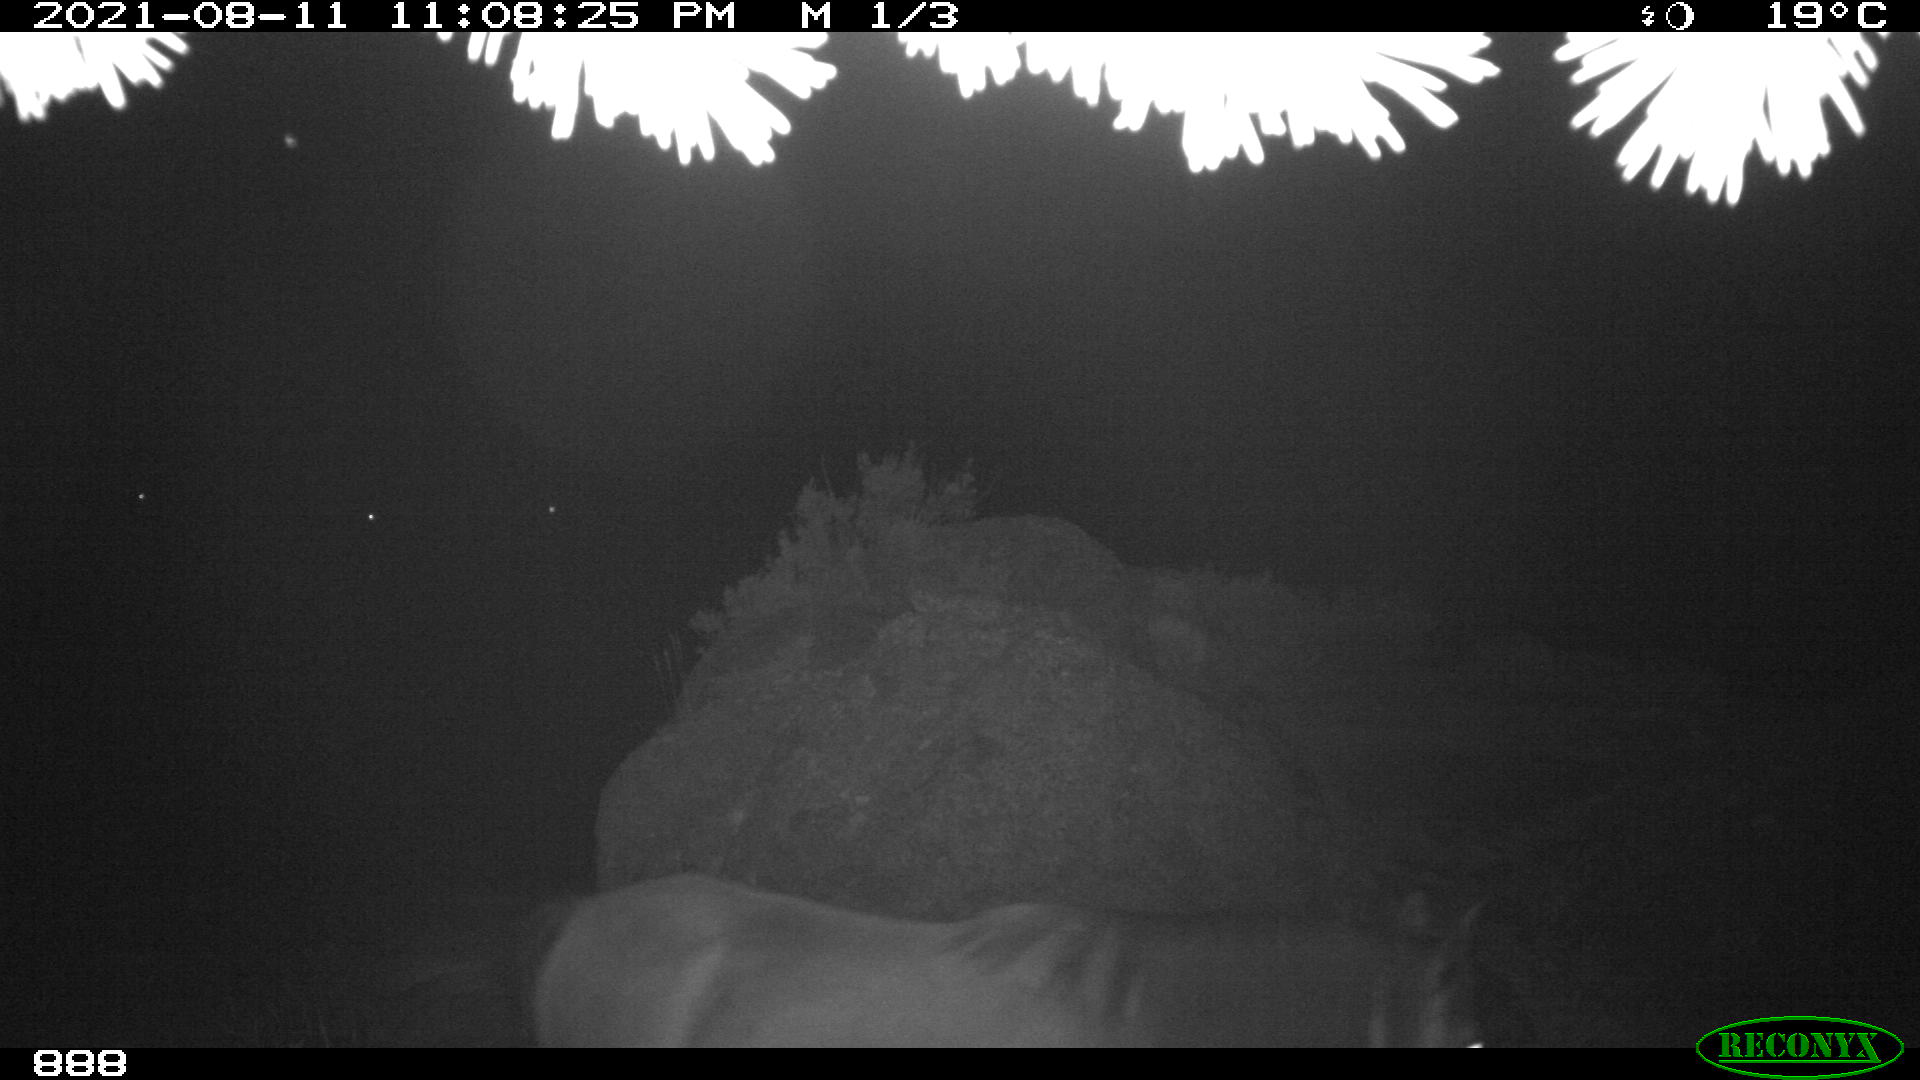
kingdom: Animalia
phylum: Chordata
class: Mammalia
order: Perissodactyla
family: Equidae
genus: Equus
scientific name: Equus caballus
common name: Horse
